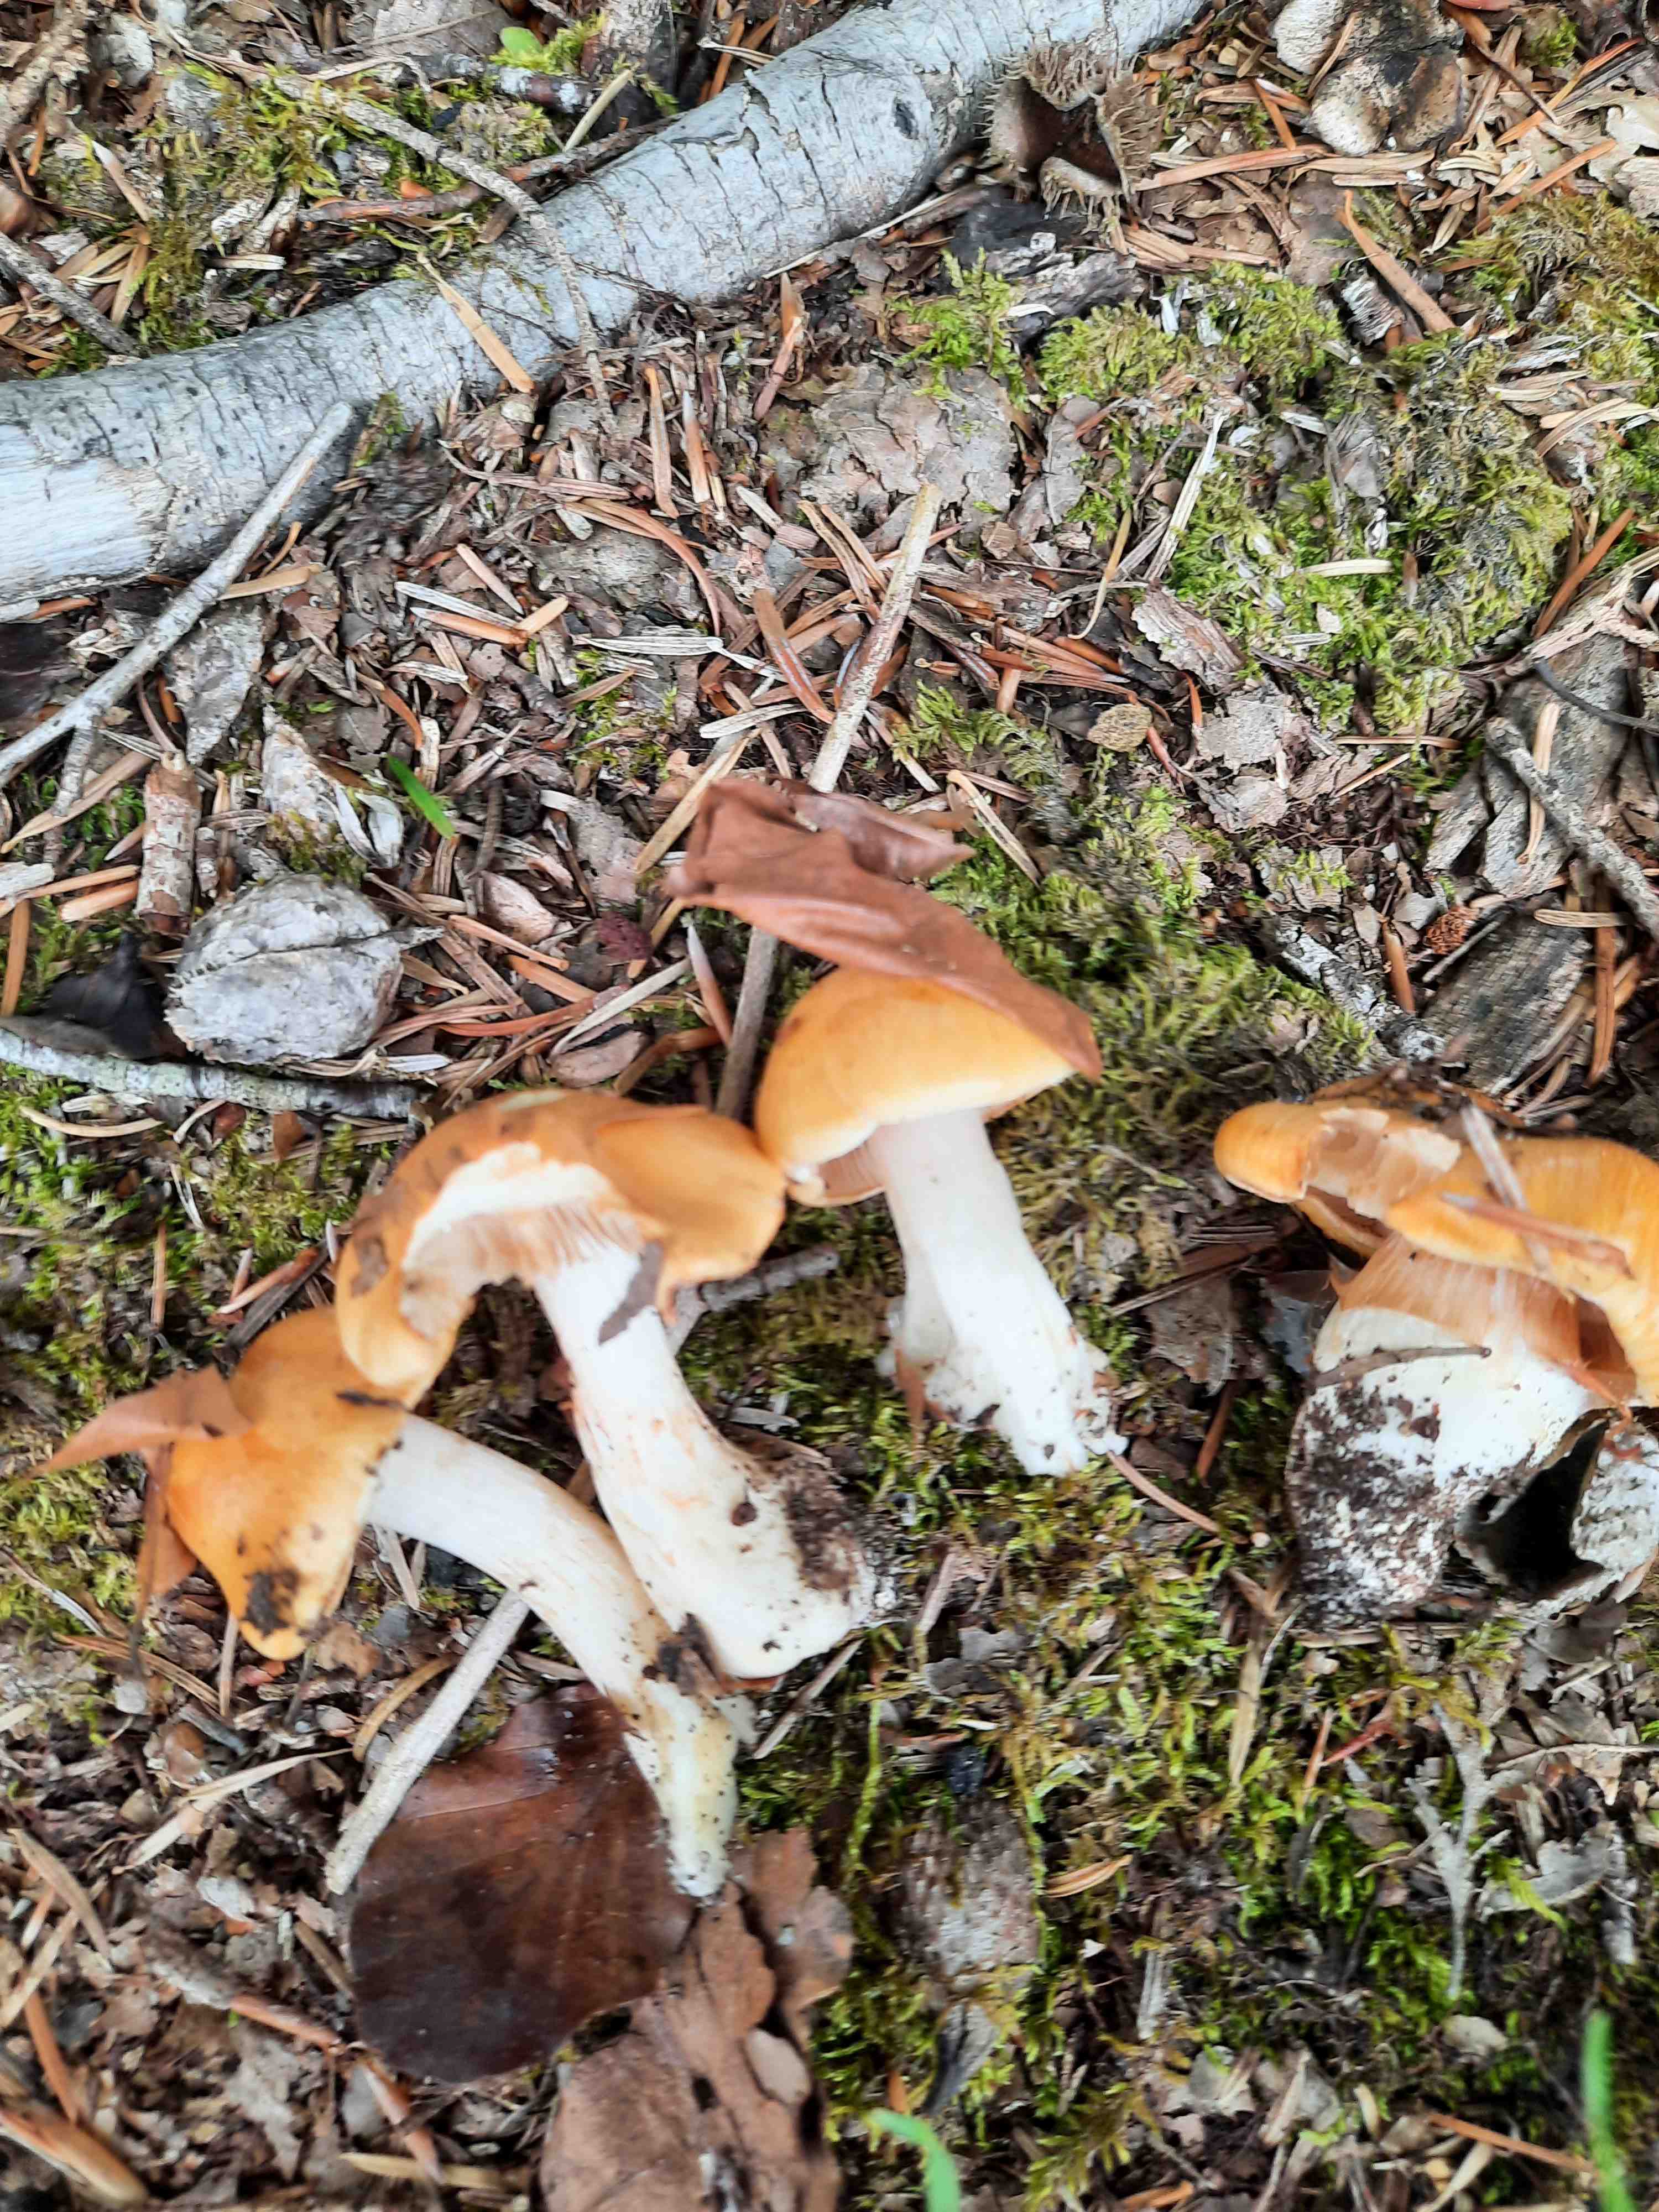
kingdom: Fungi
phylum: Basidiomycota
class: Agaricomycetes
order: Agaricales
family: Cortinariaceae
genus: Thaxterogaster
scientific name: Thaxterogaster
